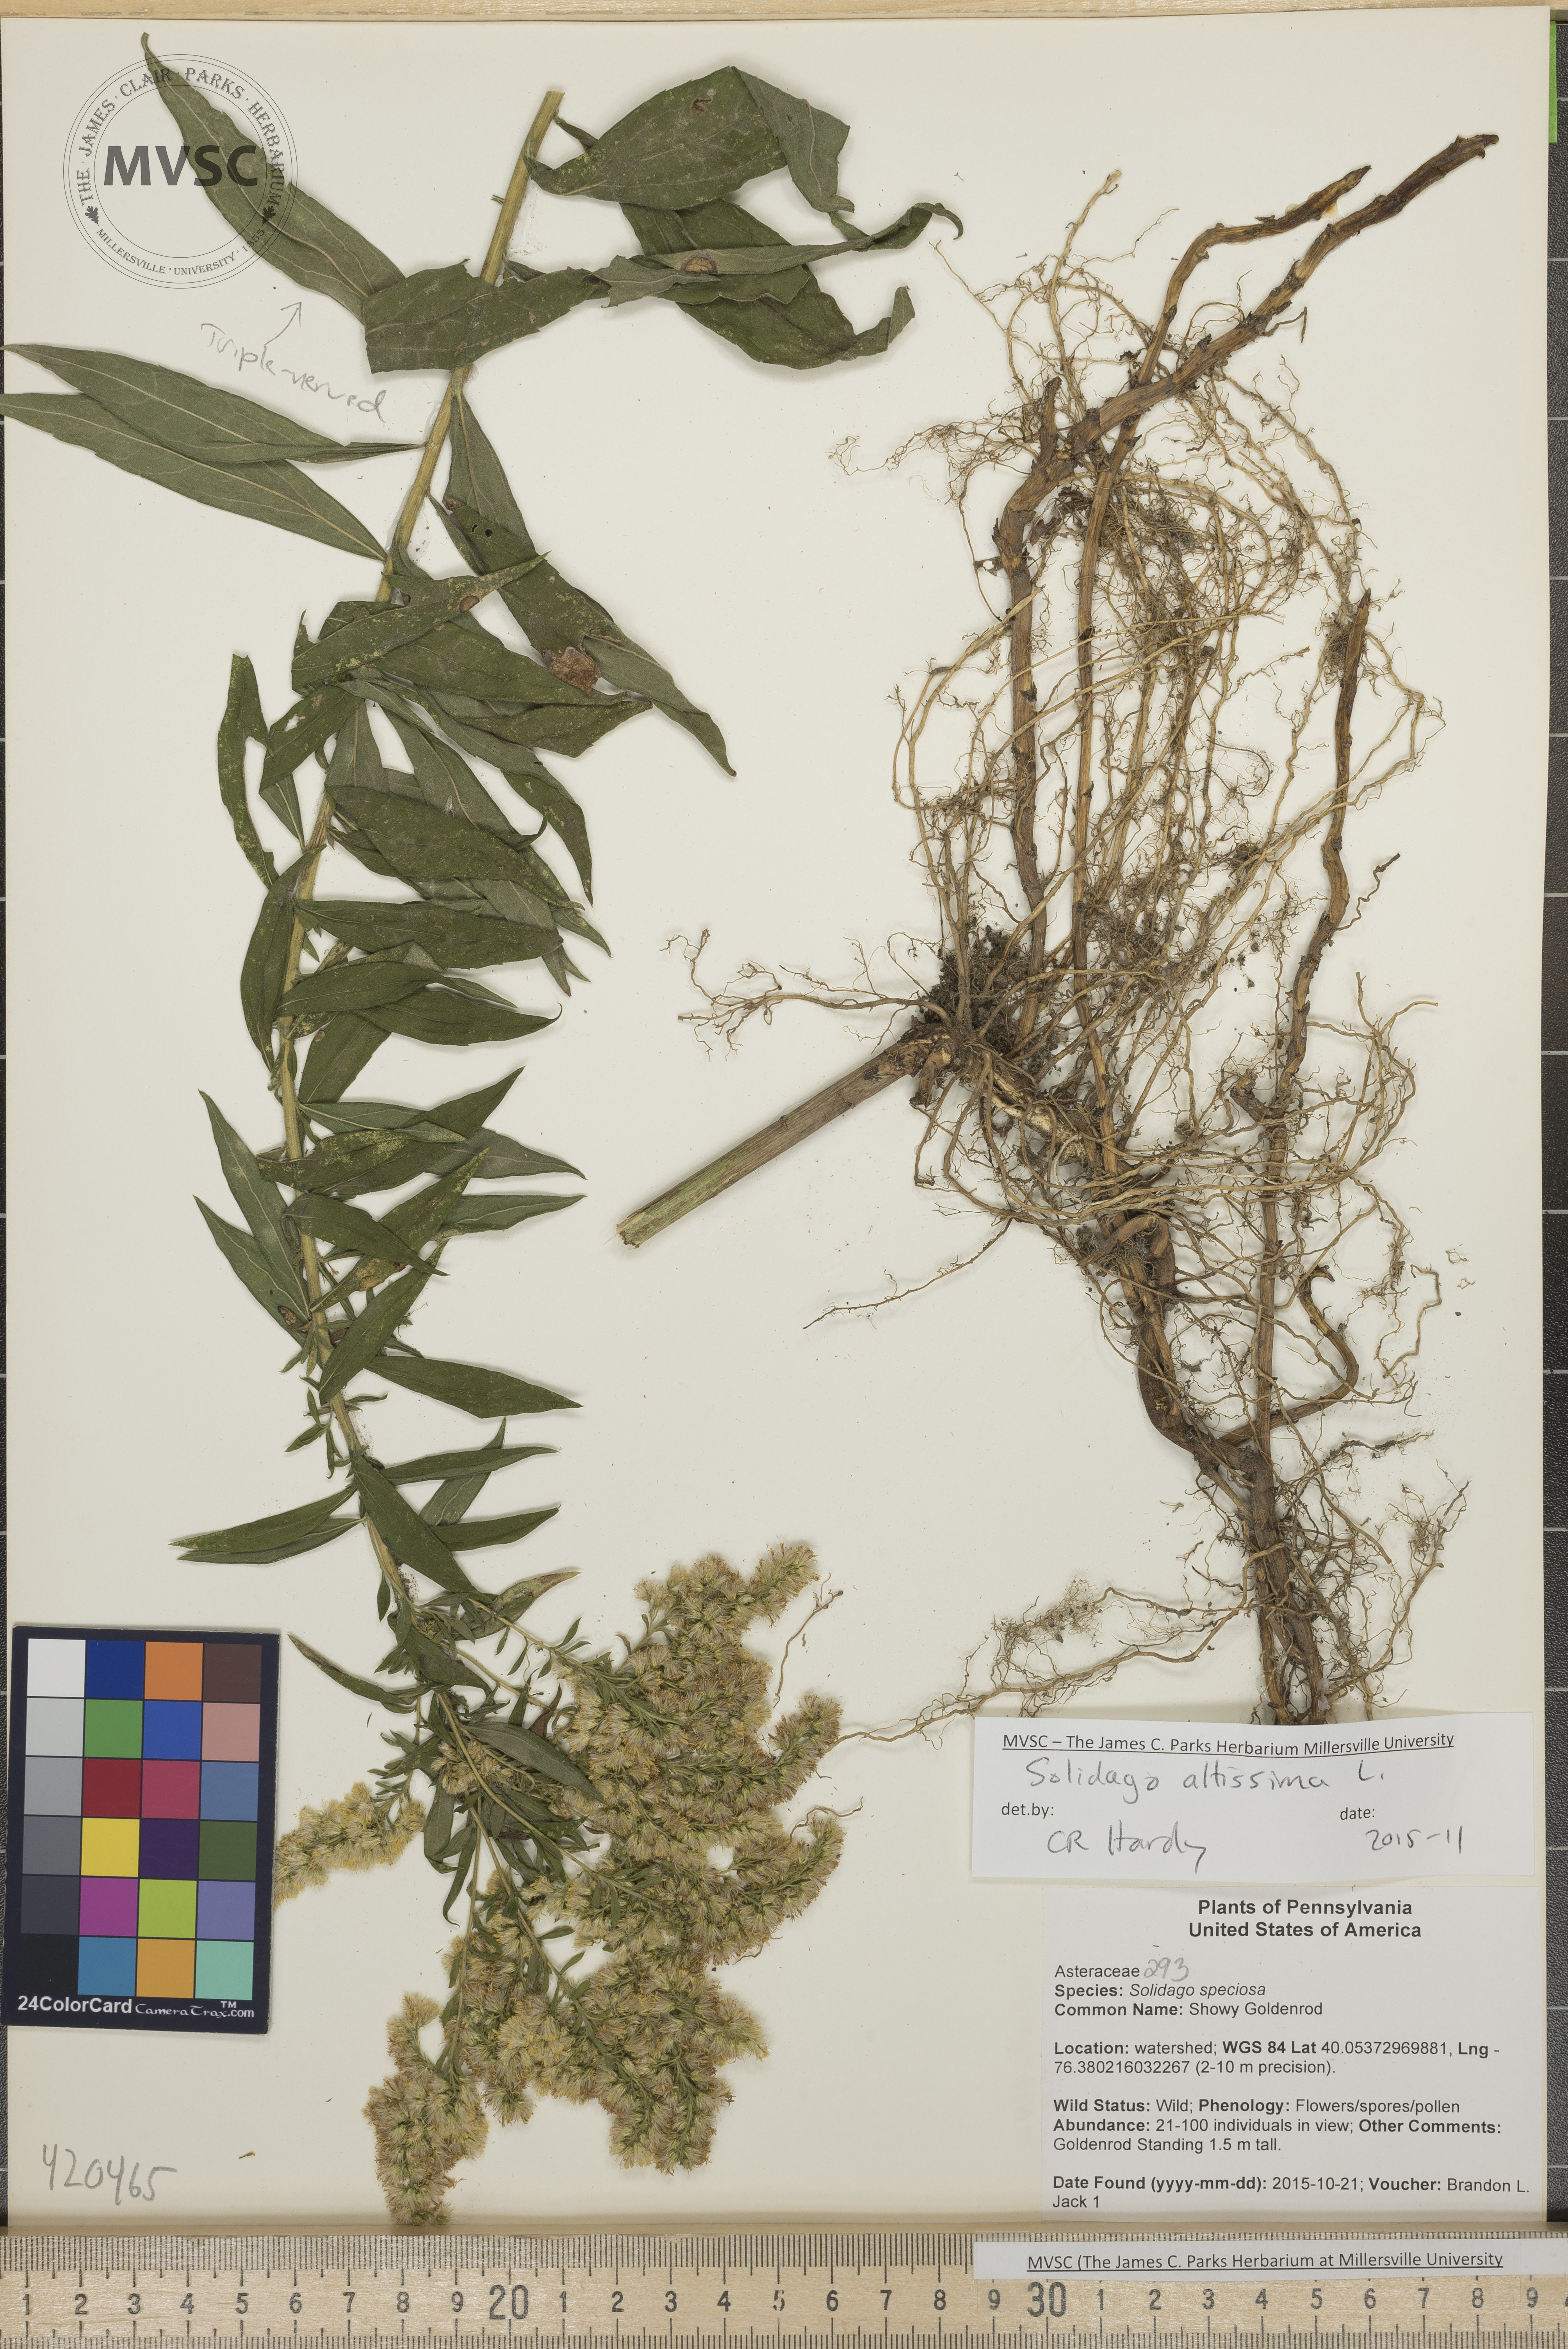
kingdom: Plantae
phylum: Tracheophyta
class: Magnoliopsida
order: Asterales
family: Asteraceae
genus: Solidago
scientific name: Solidago altissima
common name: Goldenrod
